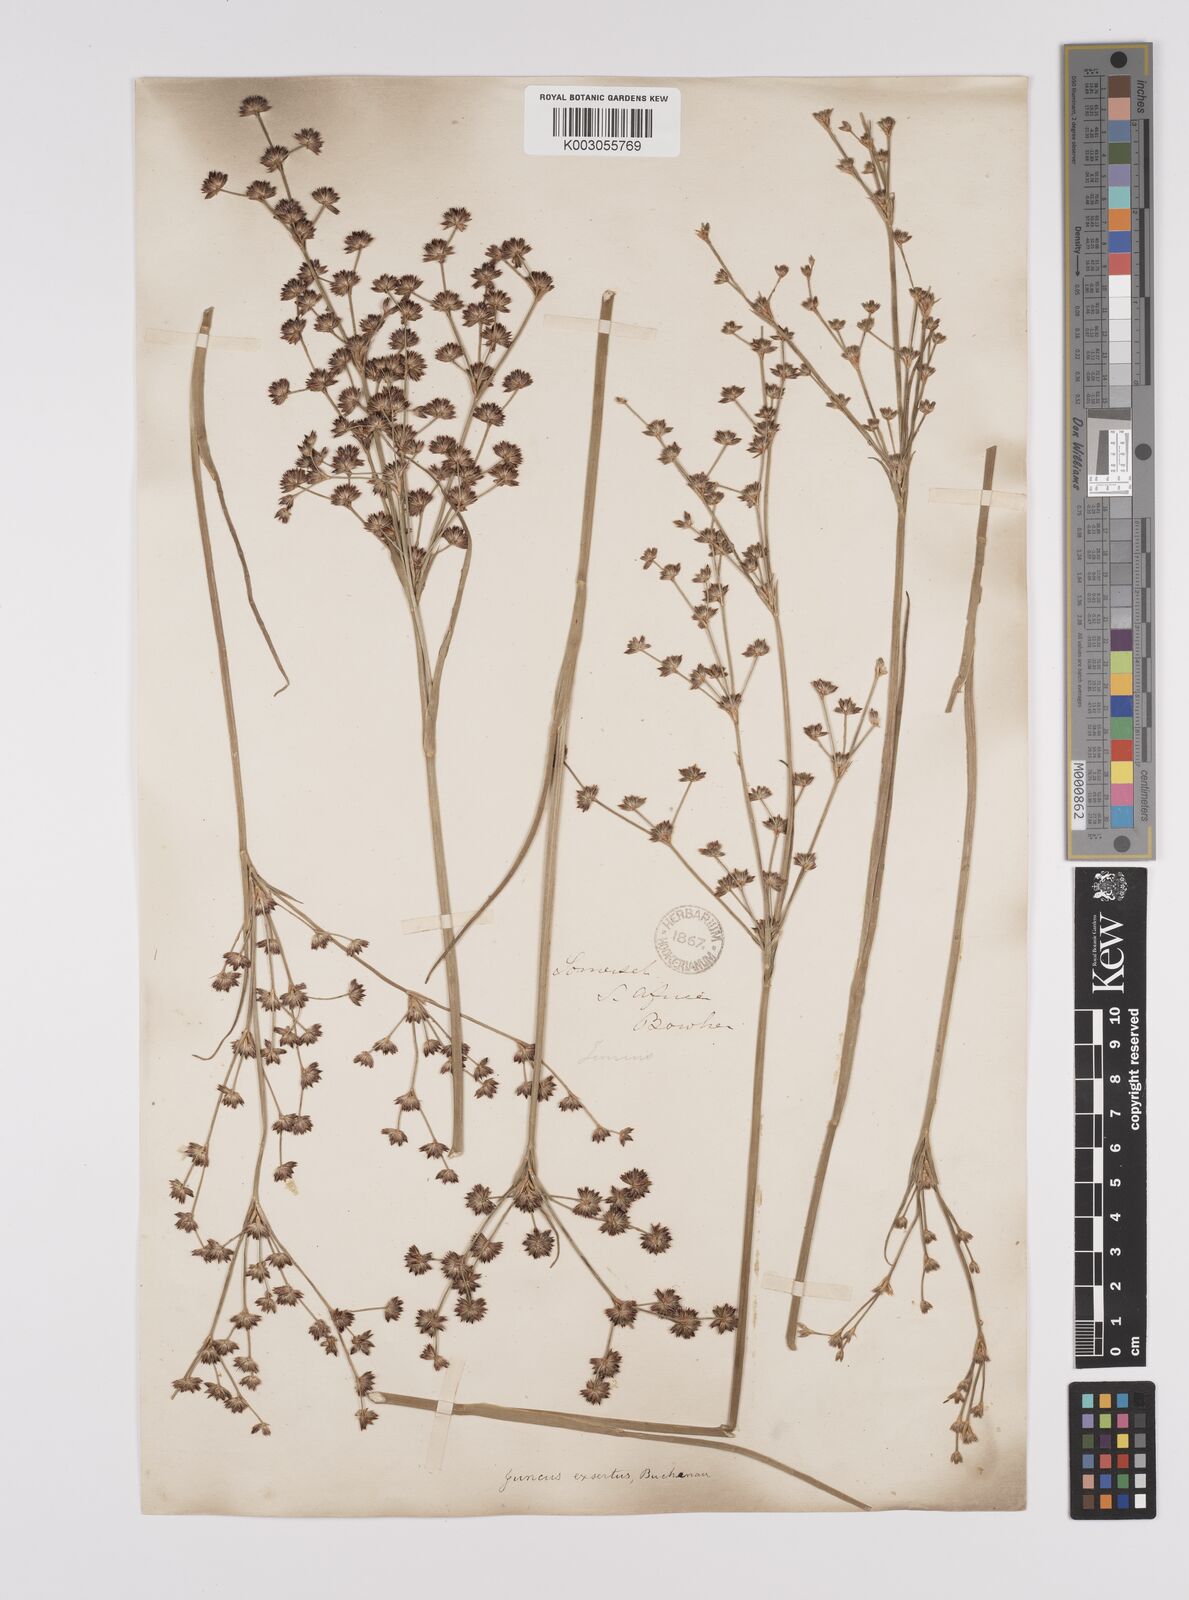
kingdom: Plantae
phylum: Tracheophyta
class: Liliopsida
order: Poales
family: Juncaceae
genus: Juncus
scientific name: Juncus exsertus
